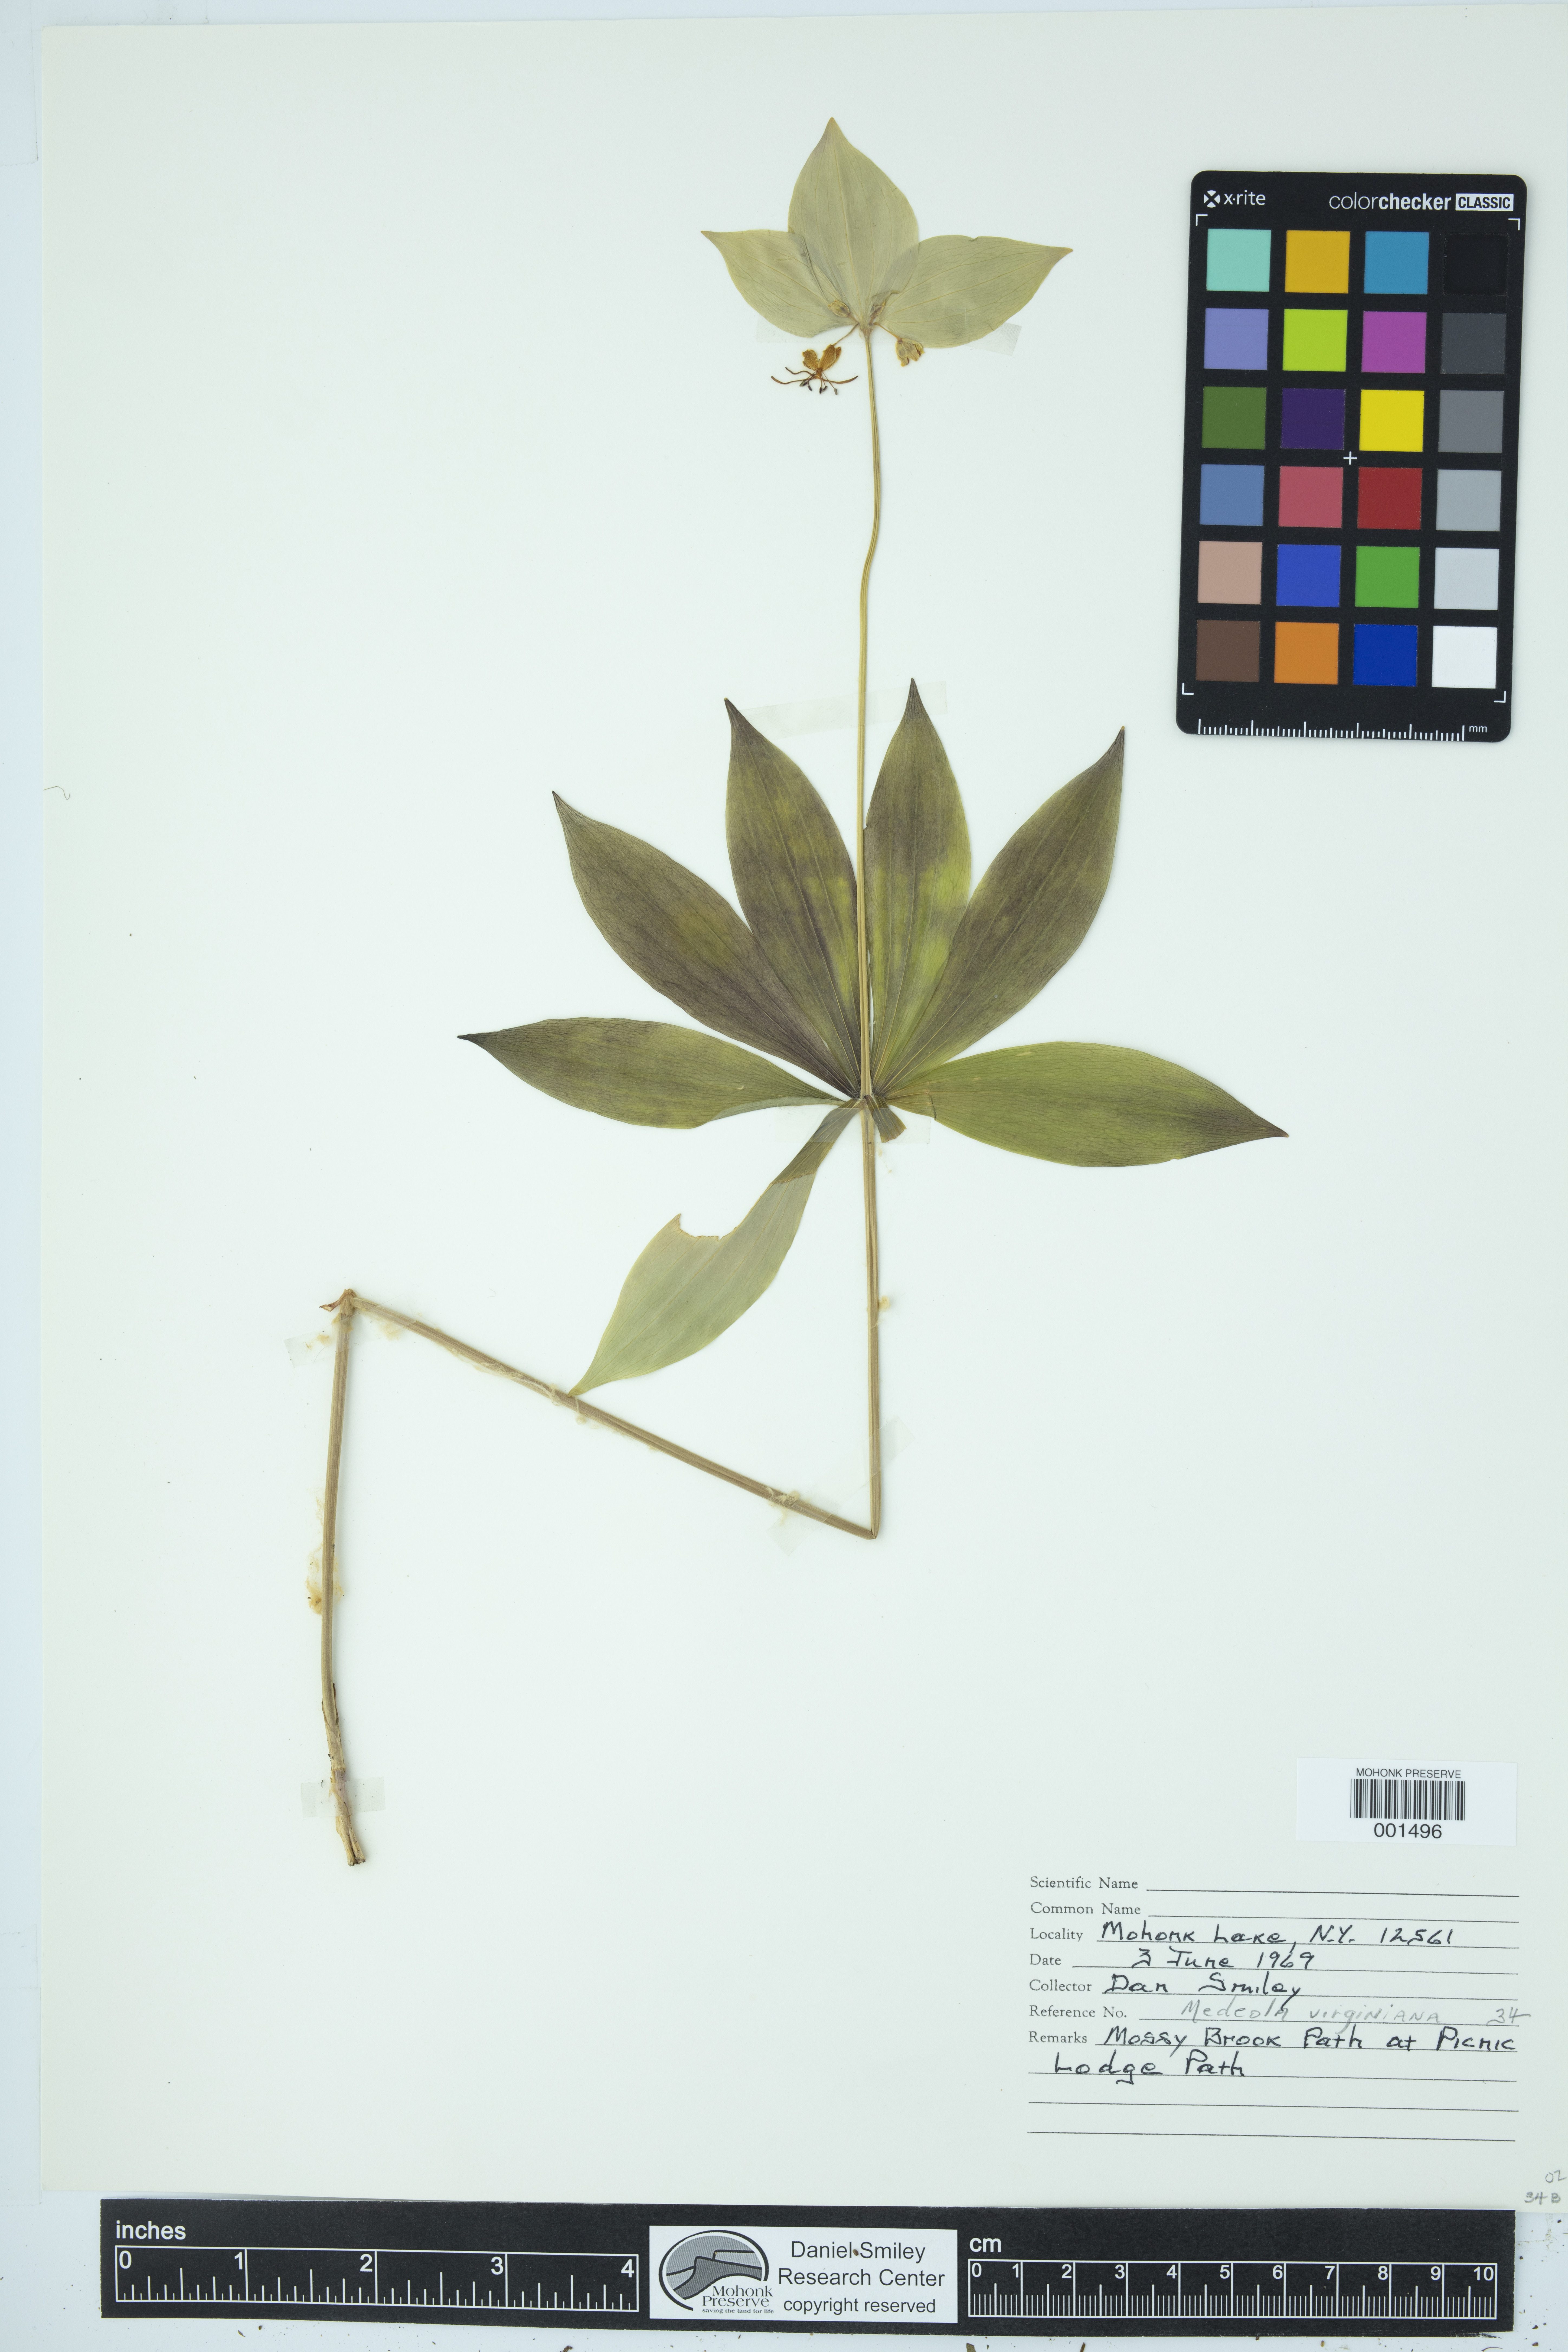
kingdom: Plantae
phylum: Tracheophyta
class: Liliopsida
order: Liliales
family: Liliaceae
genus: Medeola
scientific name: Medeola virginiana
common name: Indian cucumber-root
